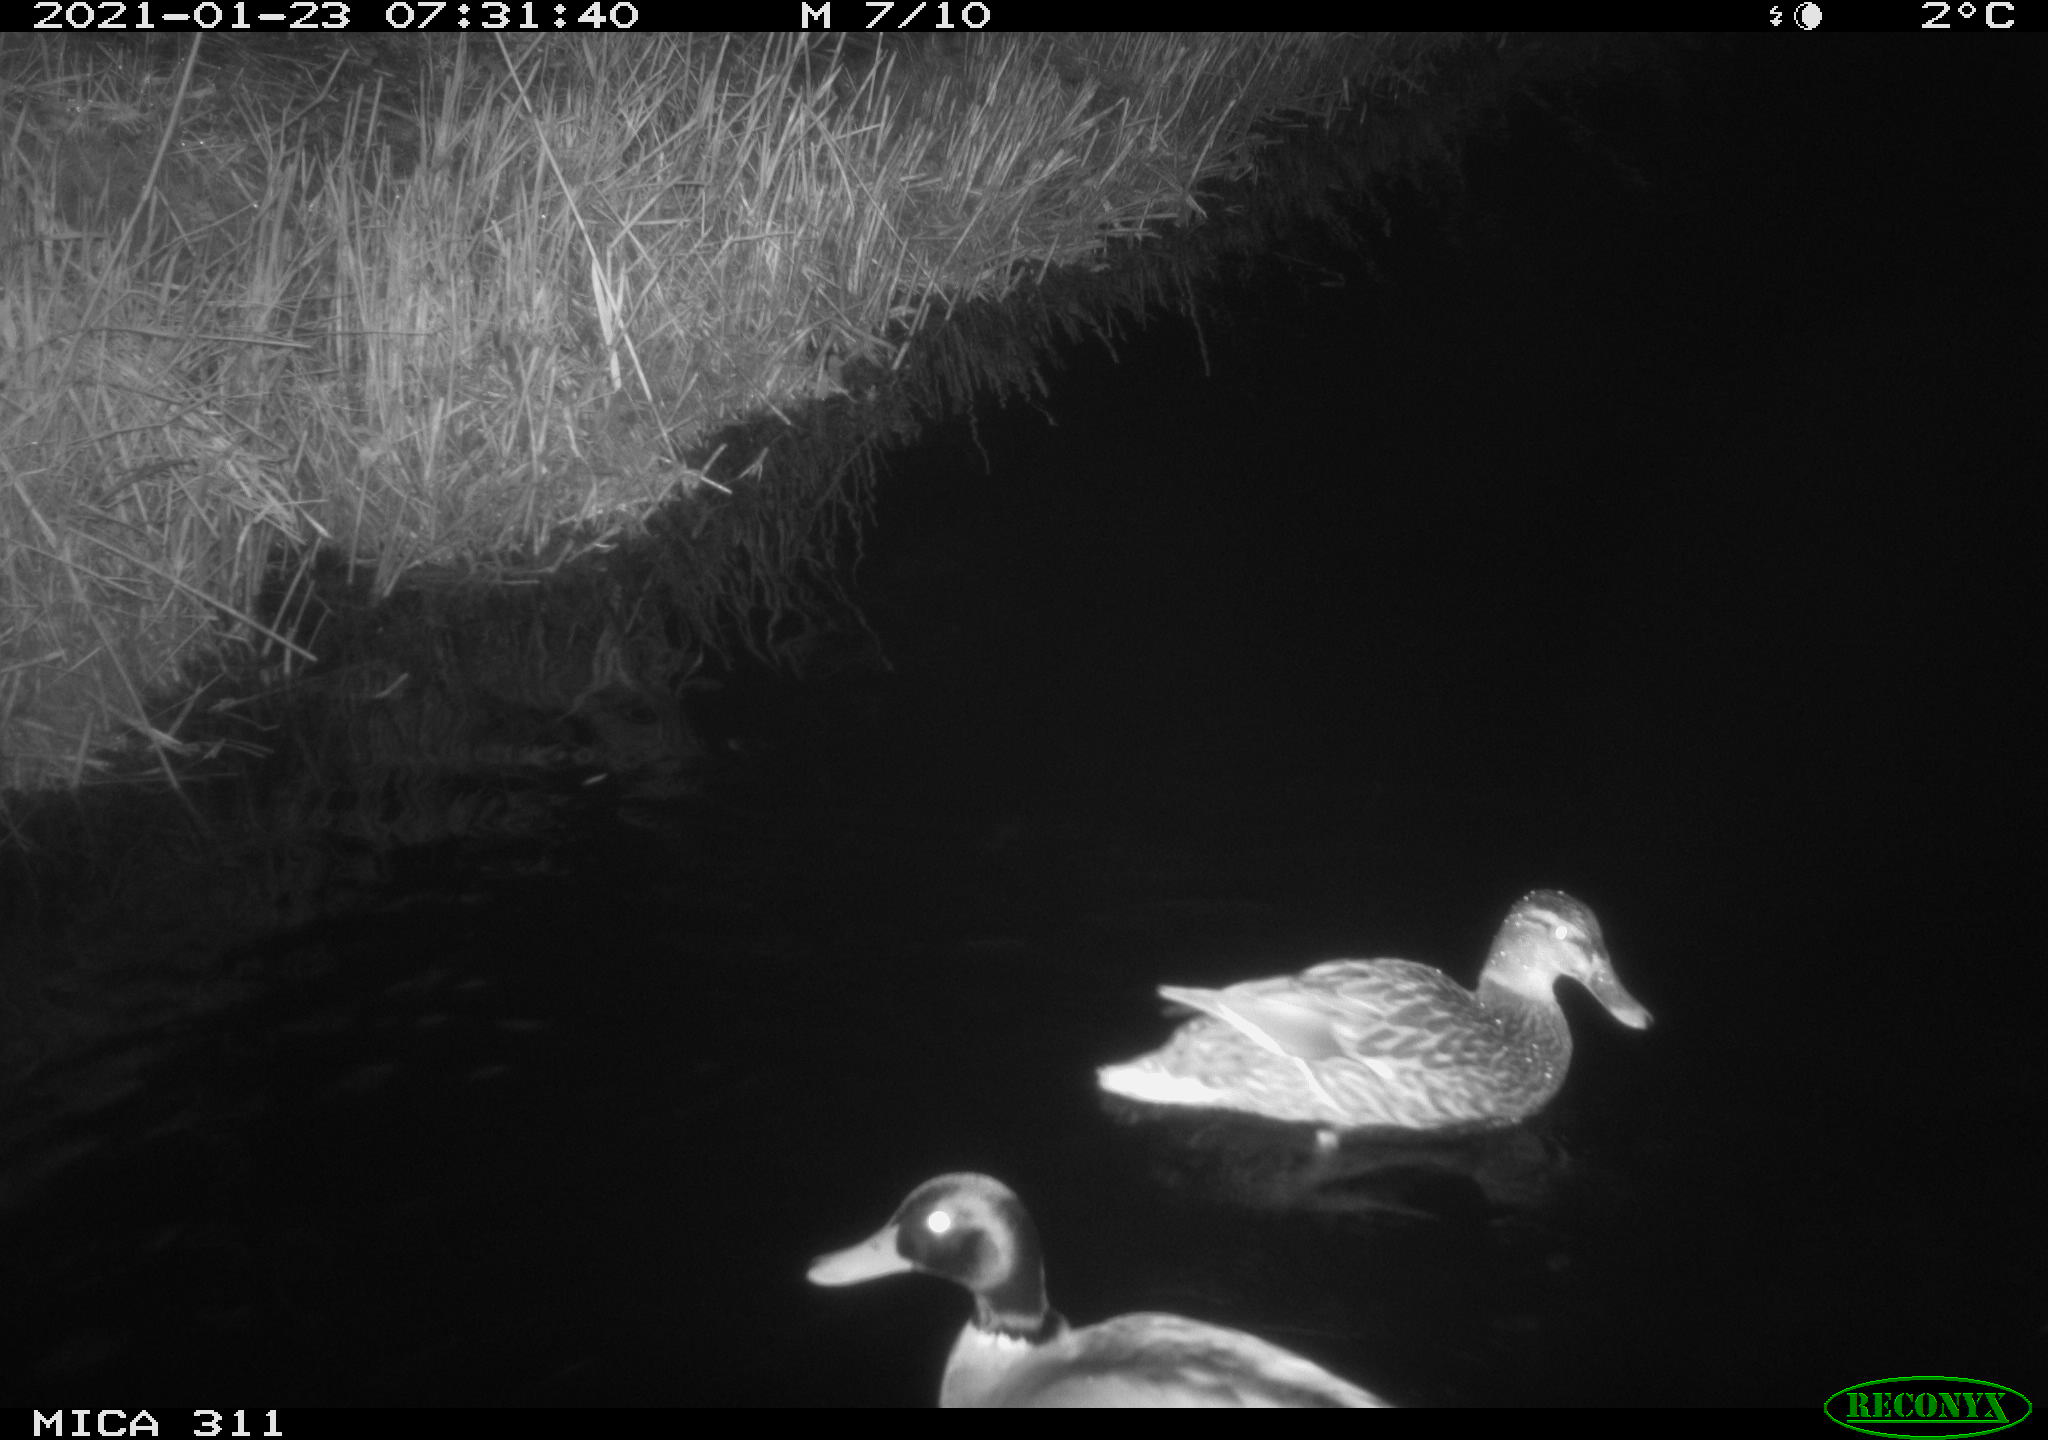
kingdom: Animalia
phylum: Chordata
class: Aves
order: Anseriformes
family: Anatidae
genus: Anas
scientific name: Anas
